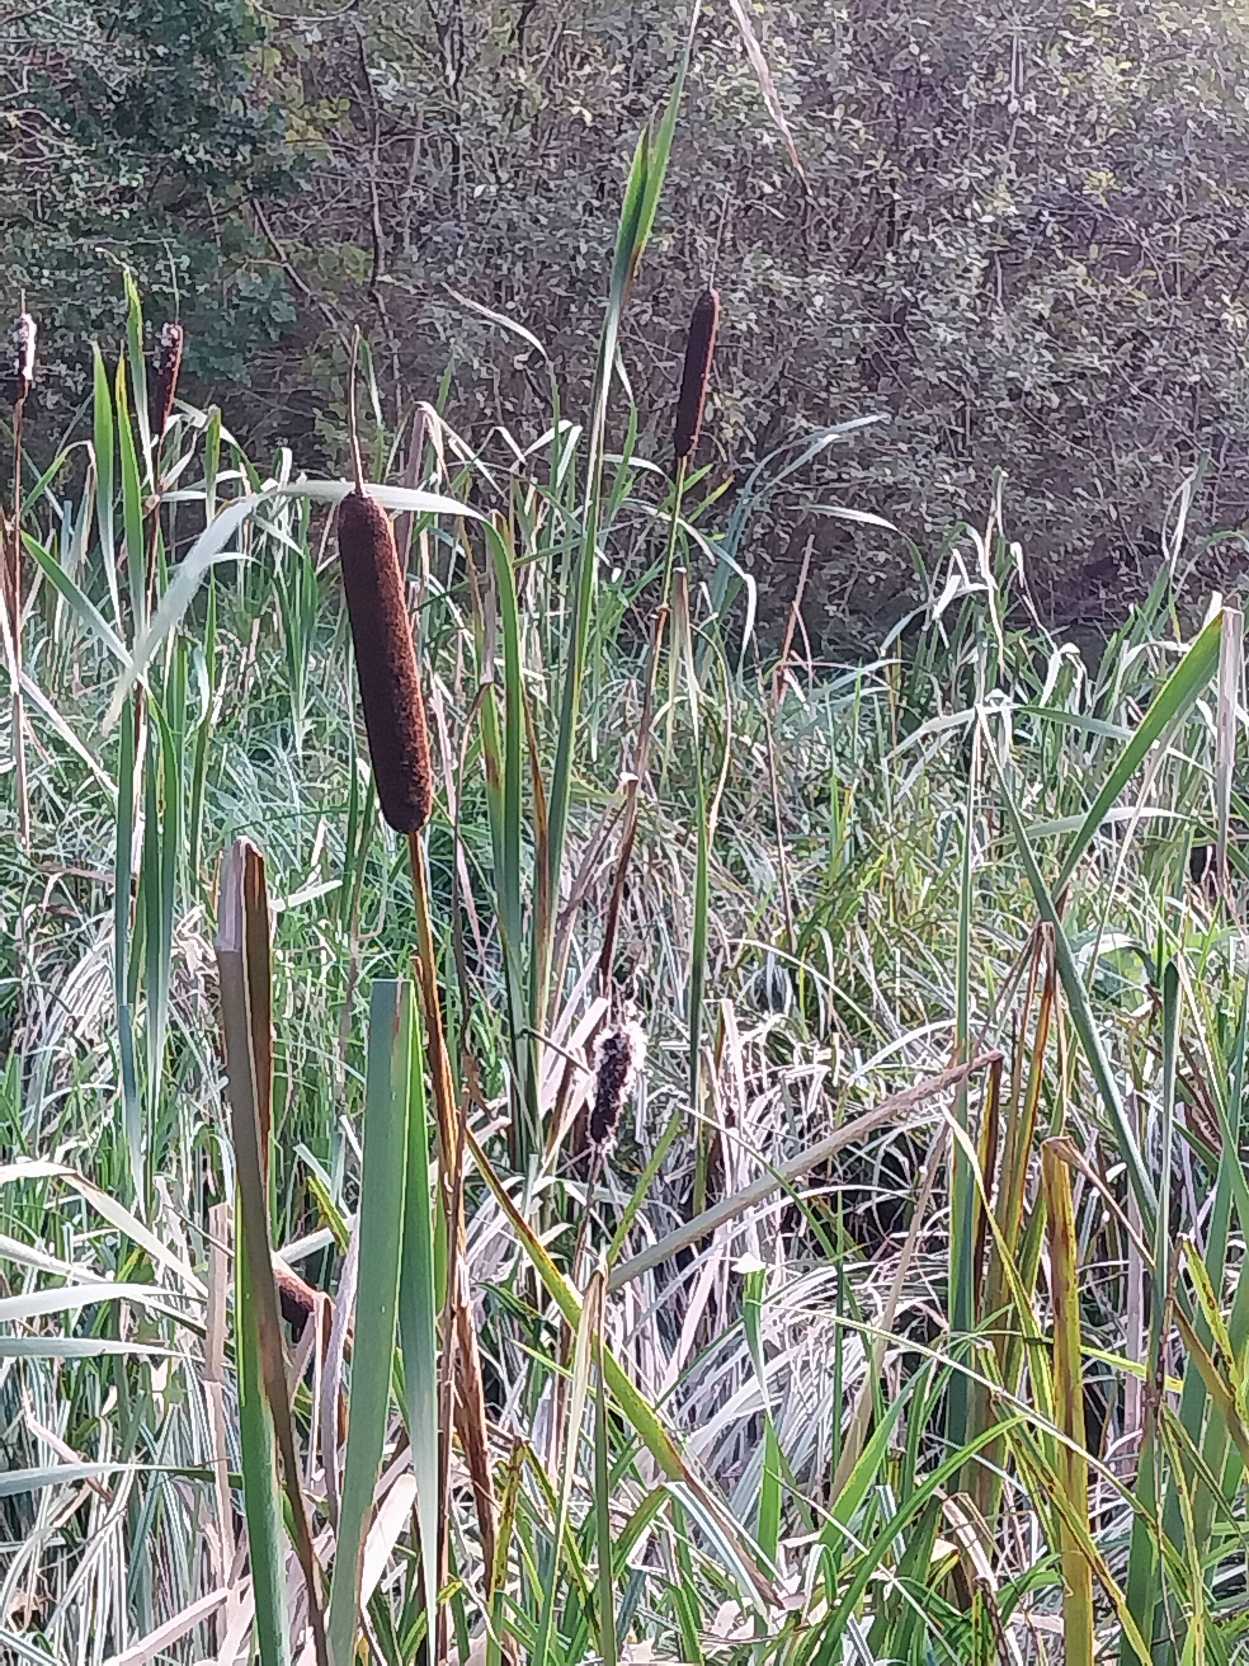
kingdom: Plantae
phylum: Tracheophyta
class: Liliopsida
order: Poales
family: Typhaceae
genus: Typha
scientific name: Typha latifolia
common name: Bredbladet dunhammer
